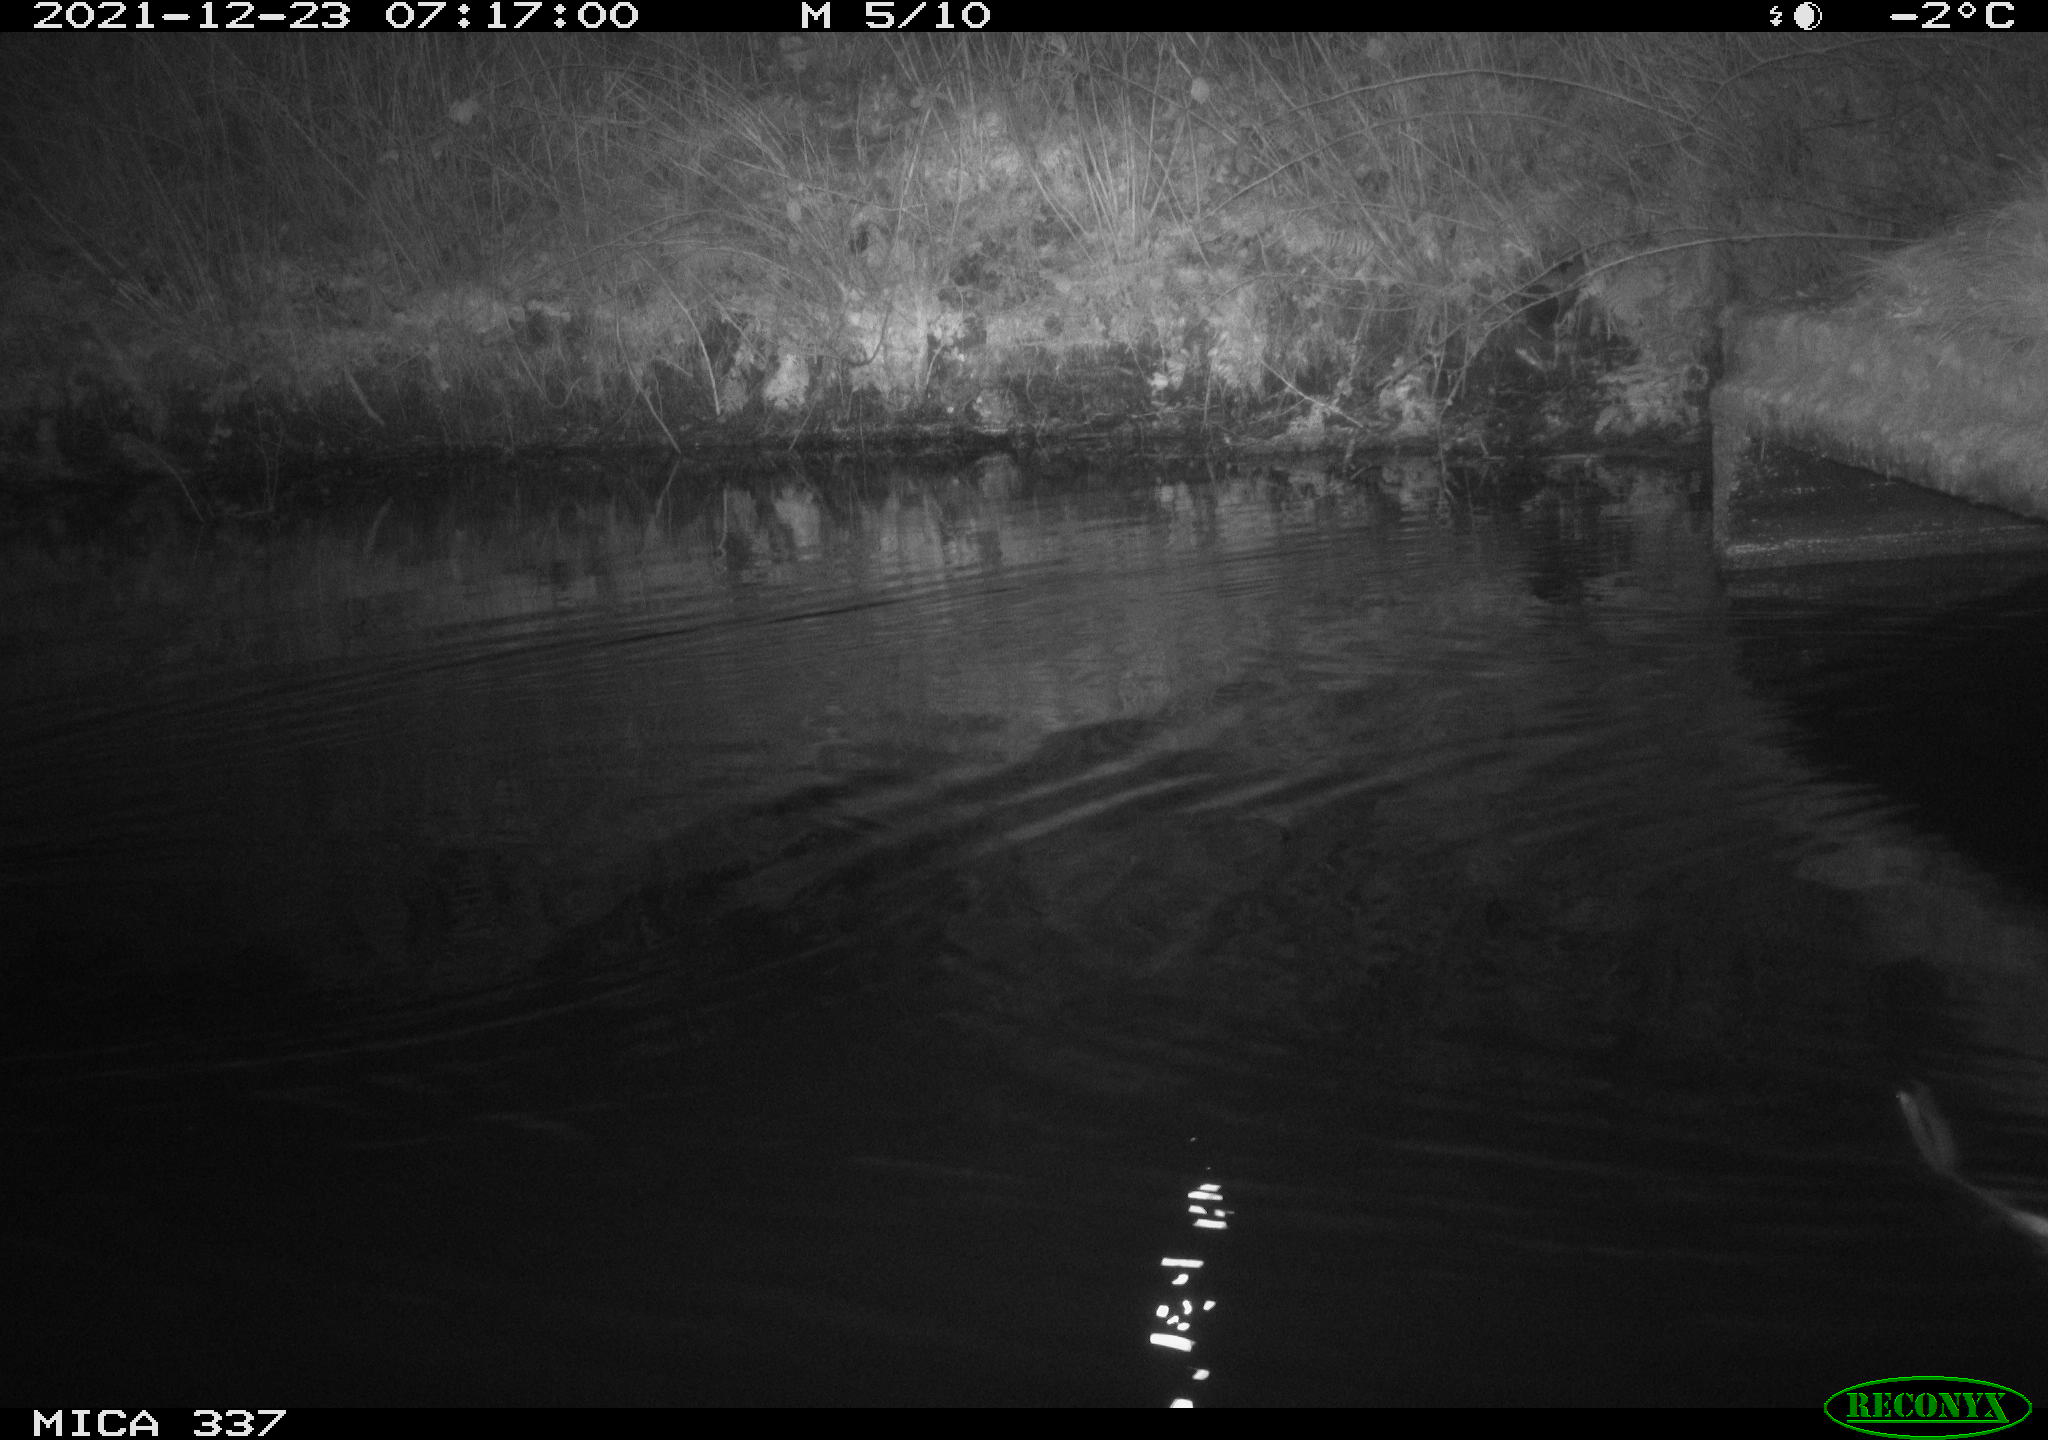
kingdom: Animalia
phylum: Chordata
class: Aves
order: Anseriformes
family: Anatidae
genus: Anas
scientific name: Anas platyrhynchos
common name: Mallard
